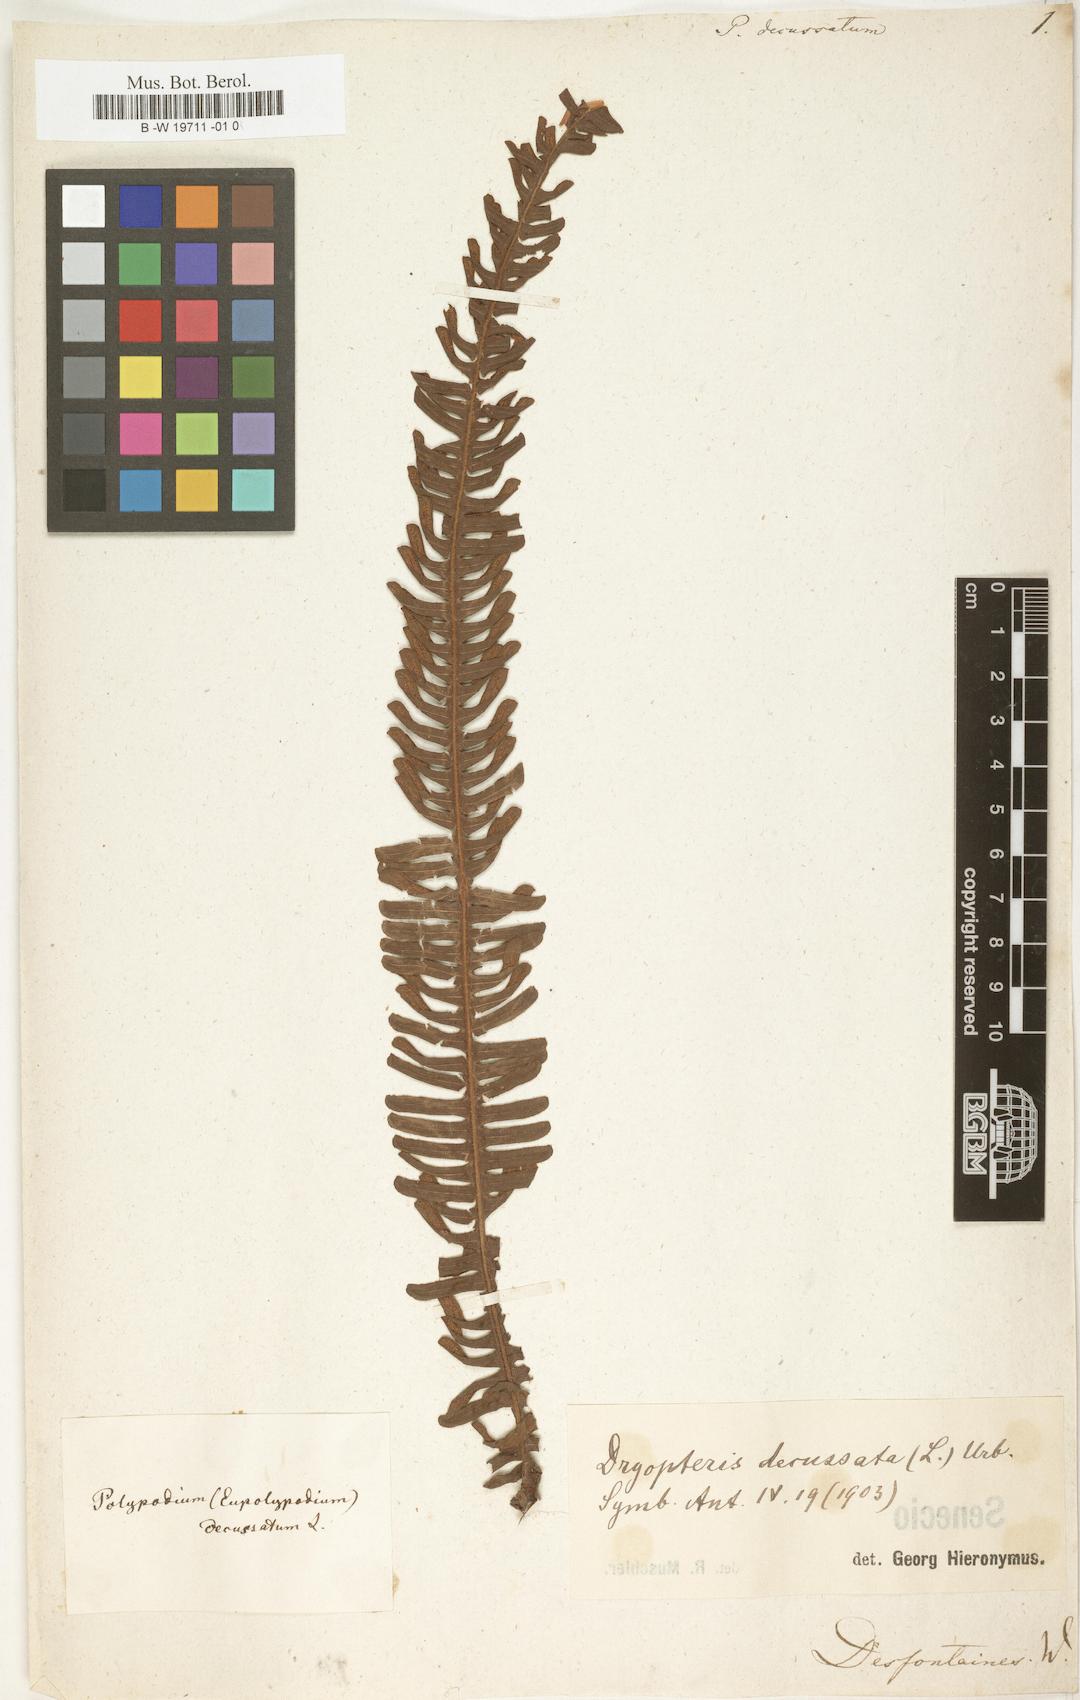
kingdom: Plantae
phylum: Tracheophyta
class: Polypodiopsida
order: Polypodiales
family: Polypodiaceae
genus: Polypodium
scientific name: Polypodium decussatum
